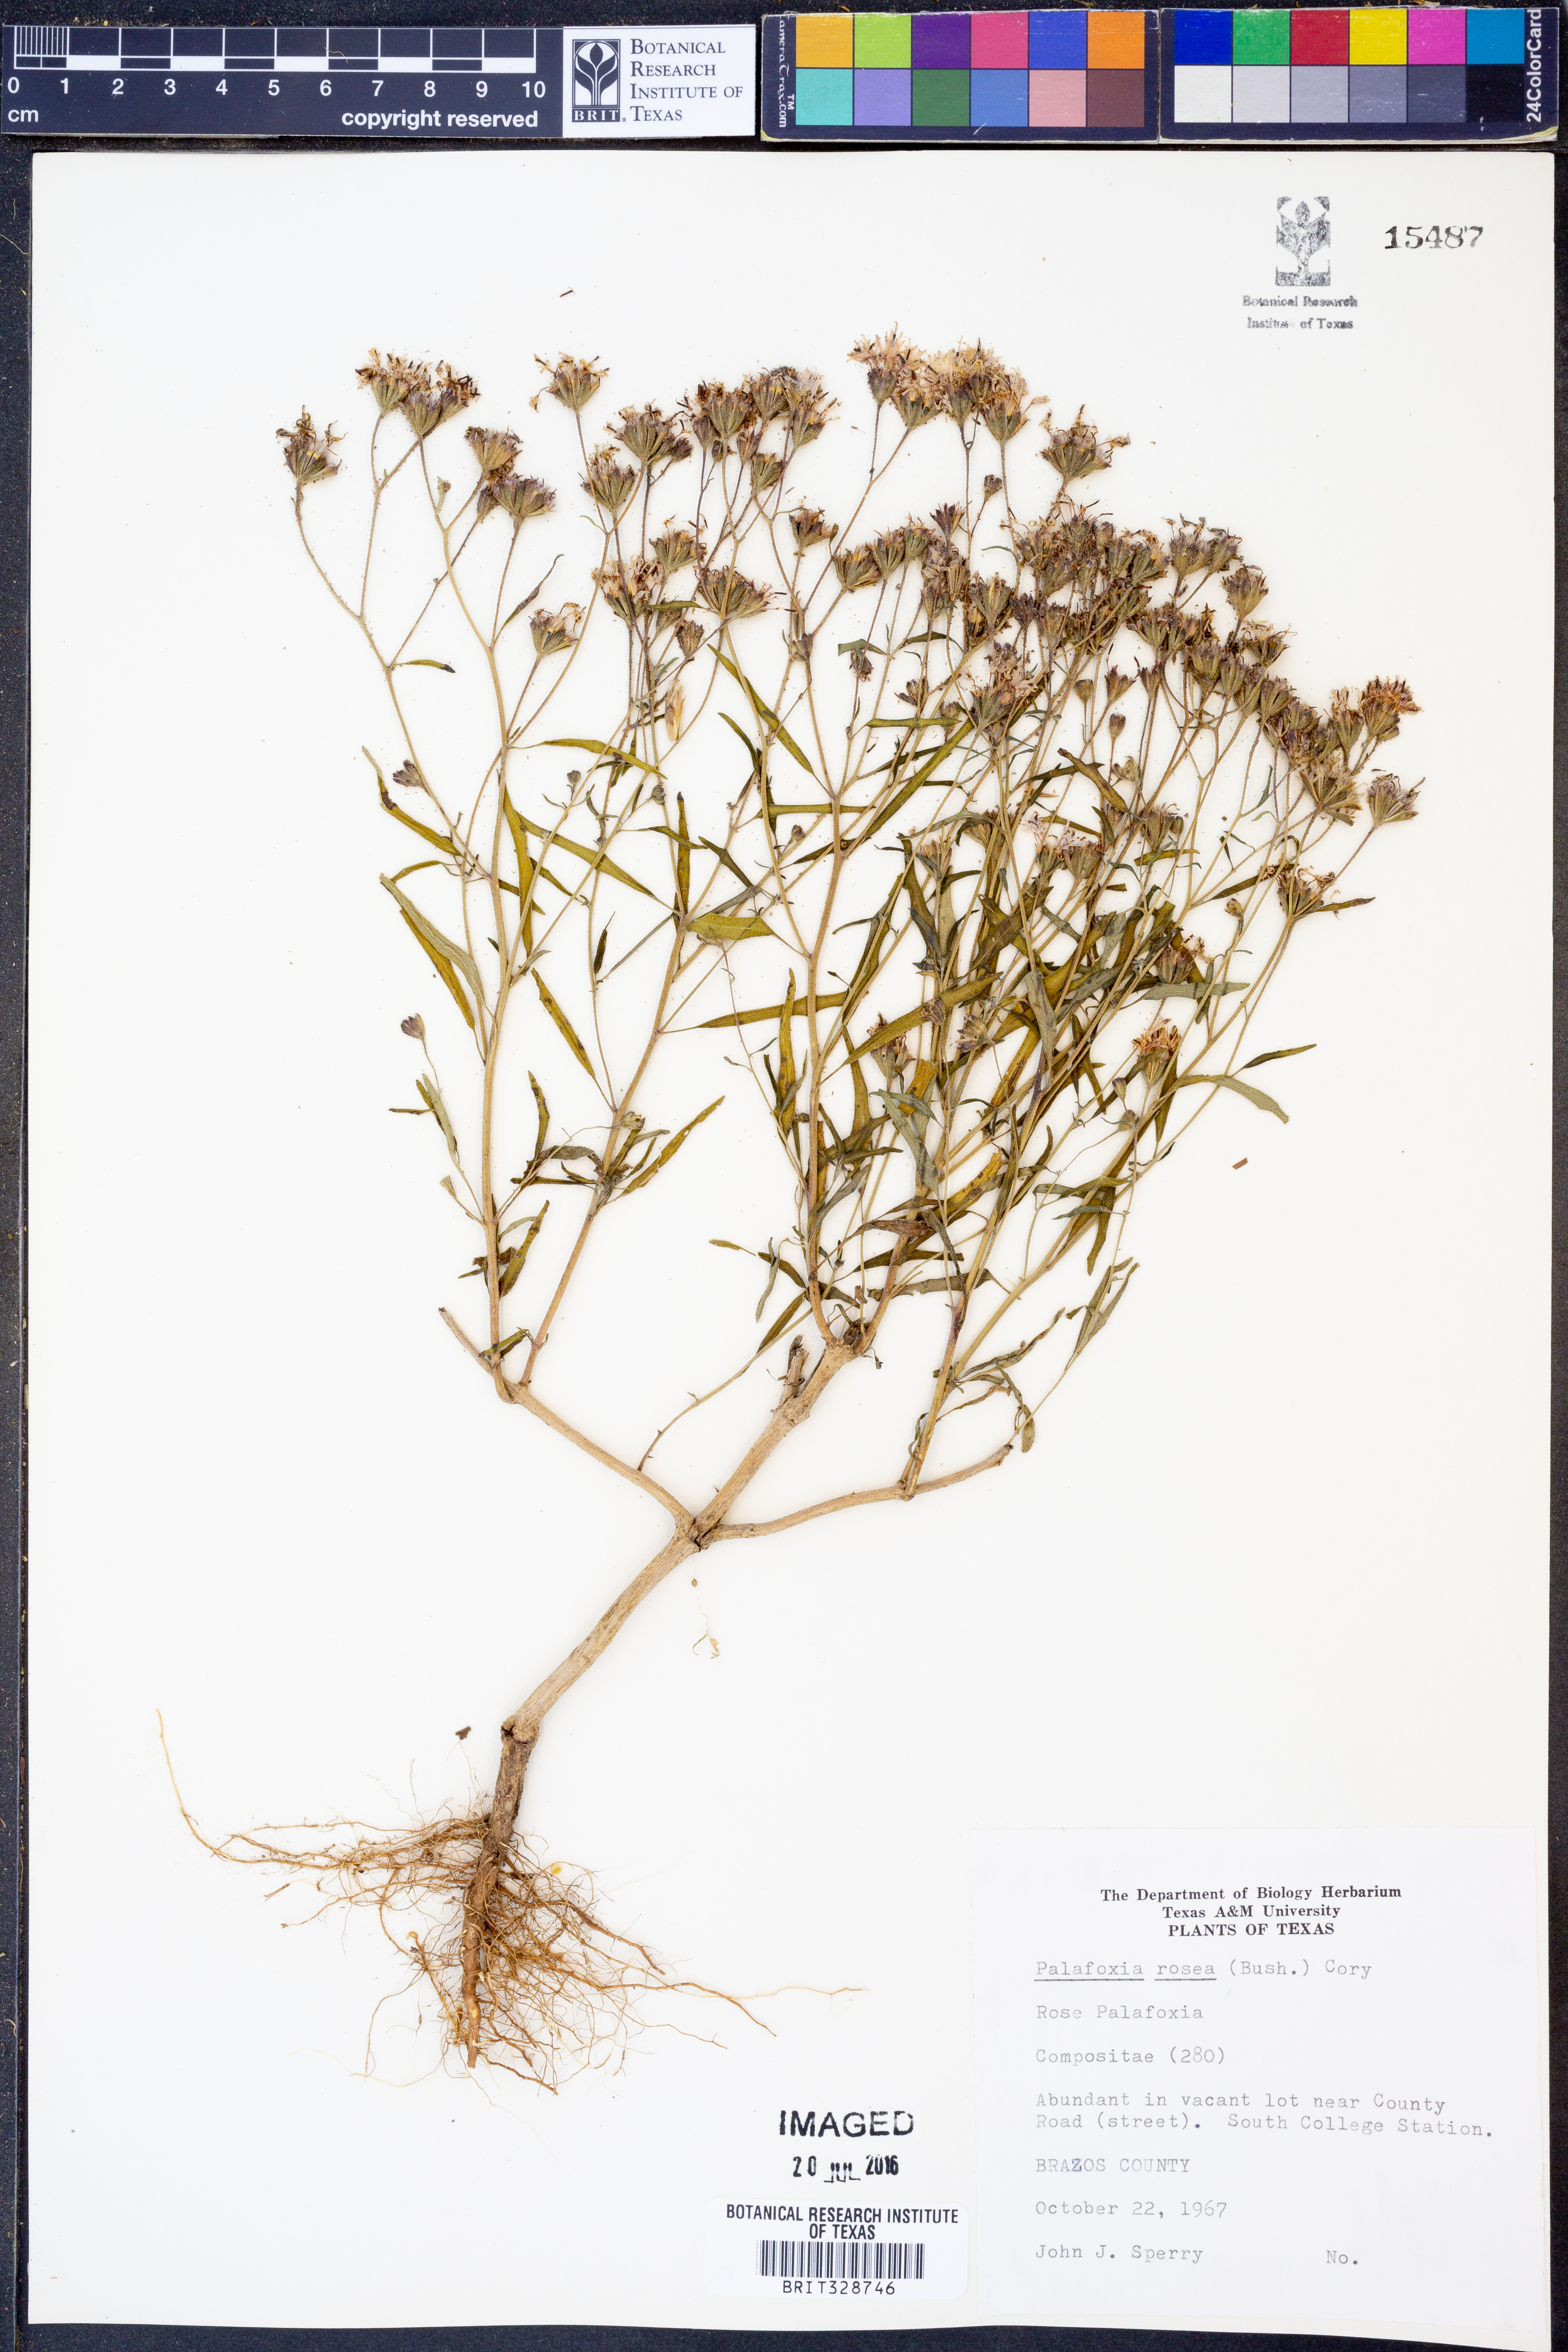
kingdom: Plantae
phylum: Tracheophyta
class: Magnoliopsida
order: Asterales
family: Asteraceae
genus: Palafoxia
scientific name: Palafoxia rosea
